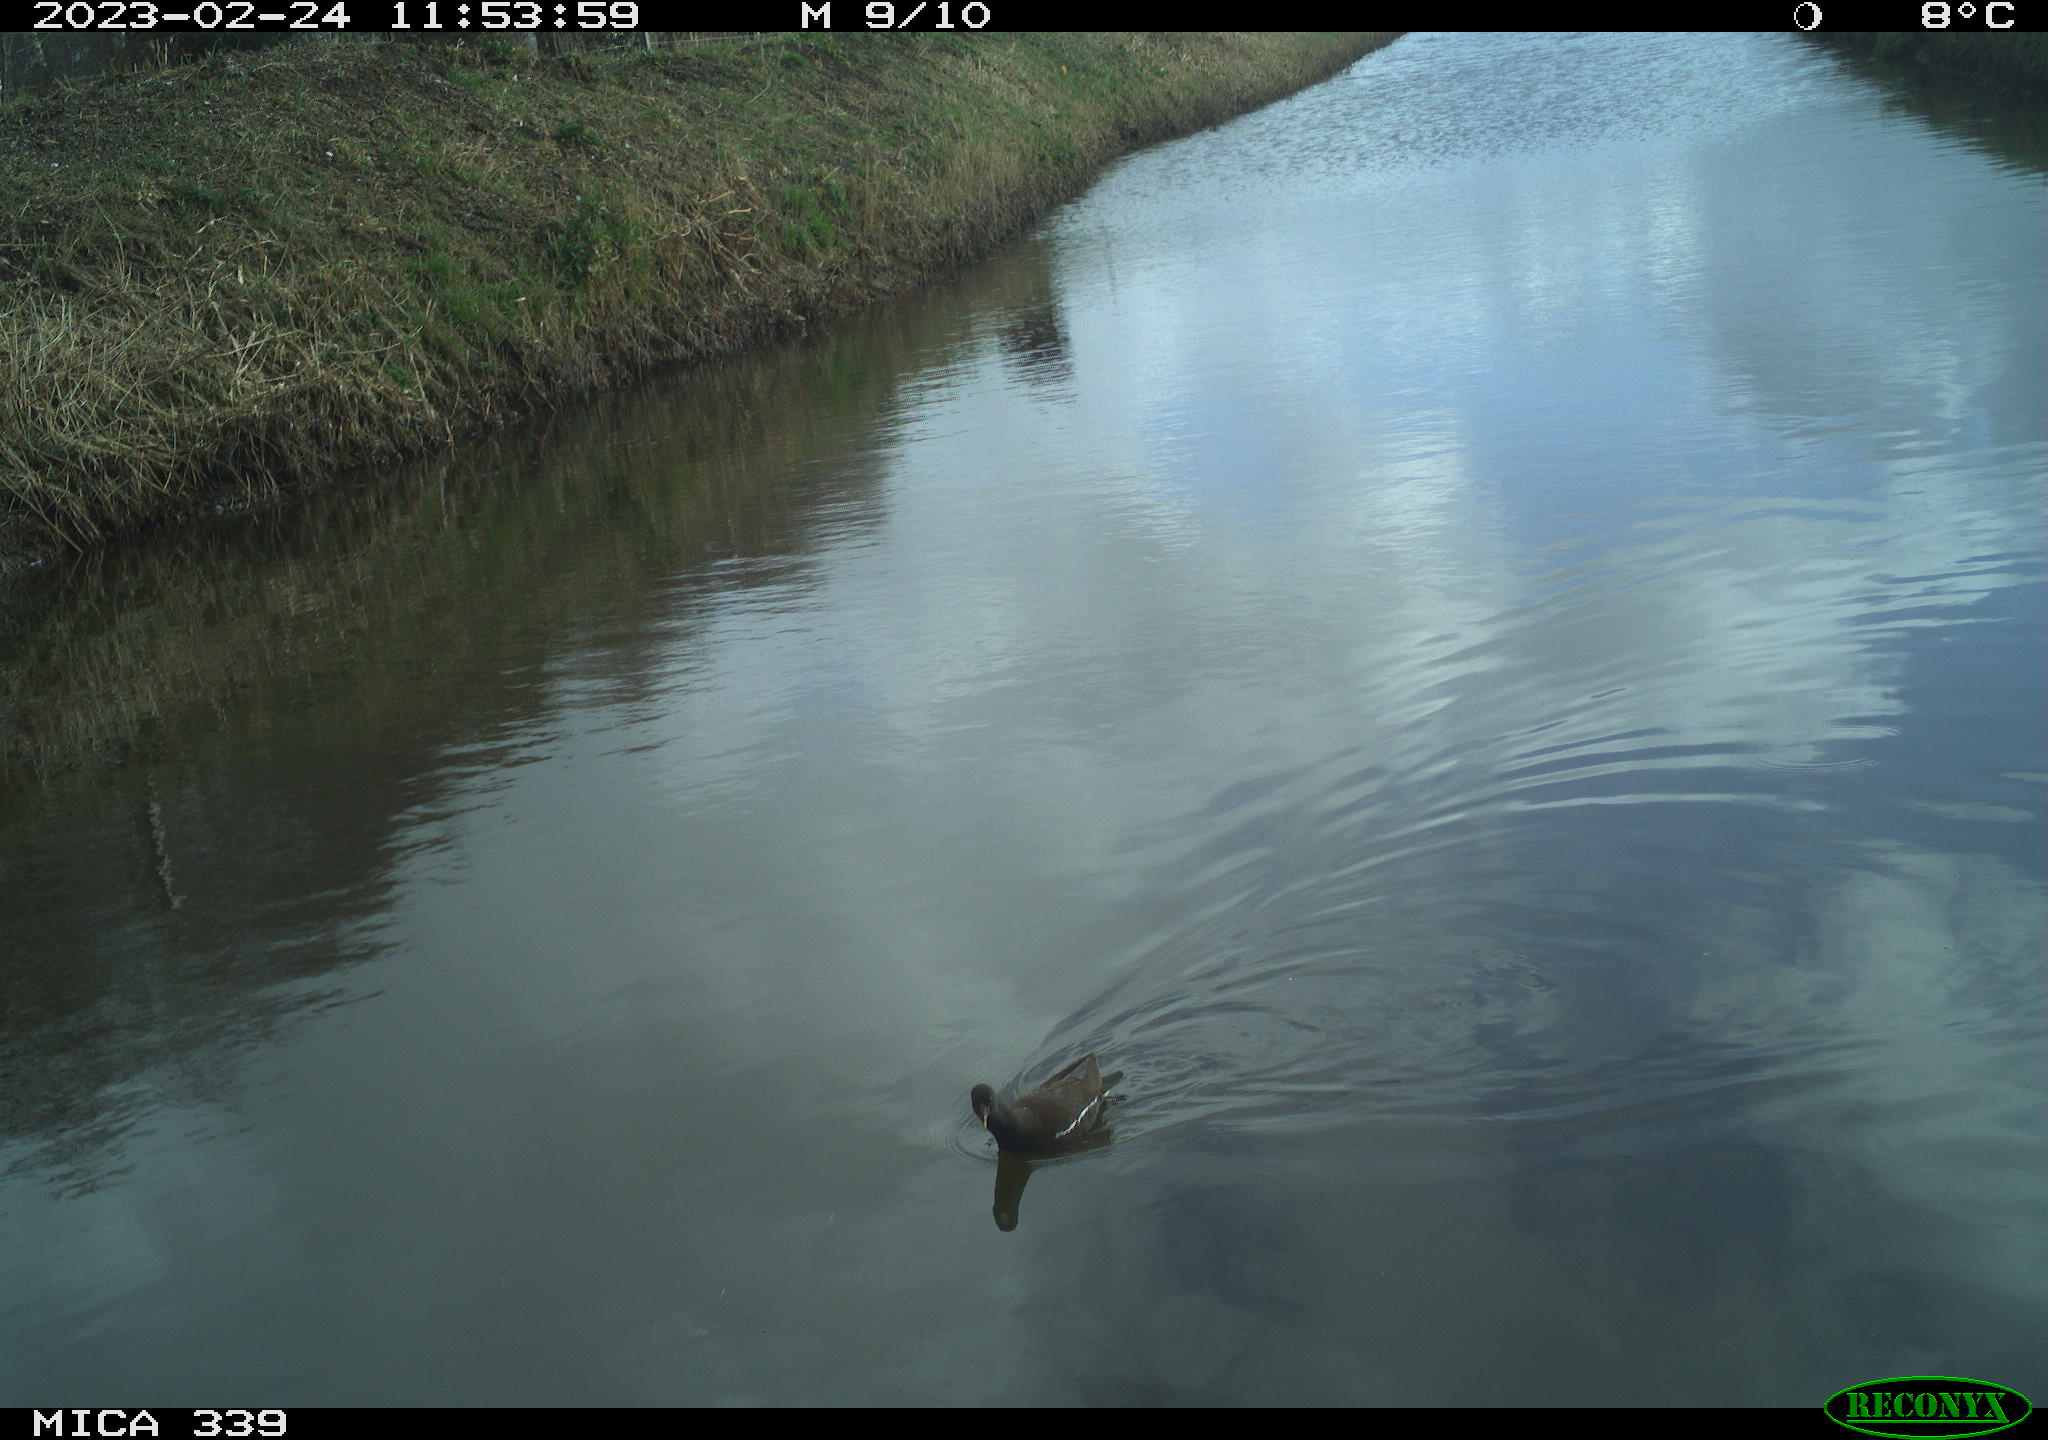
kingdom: Animalia
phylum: Chordata
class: Aves
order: Gruiformes
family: Rallidae
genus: Gallinula
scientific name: Gallinula chloropus
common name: Common moorhen
